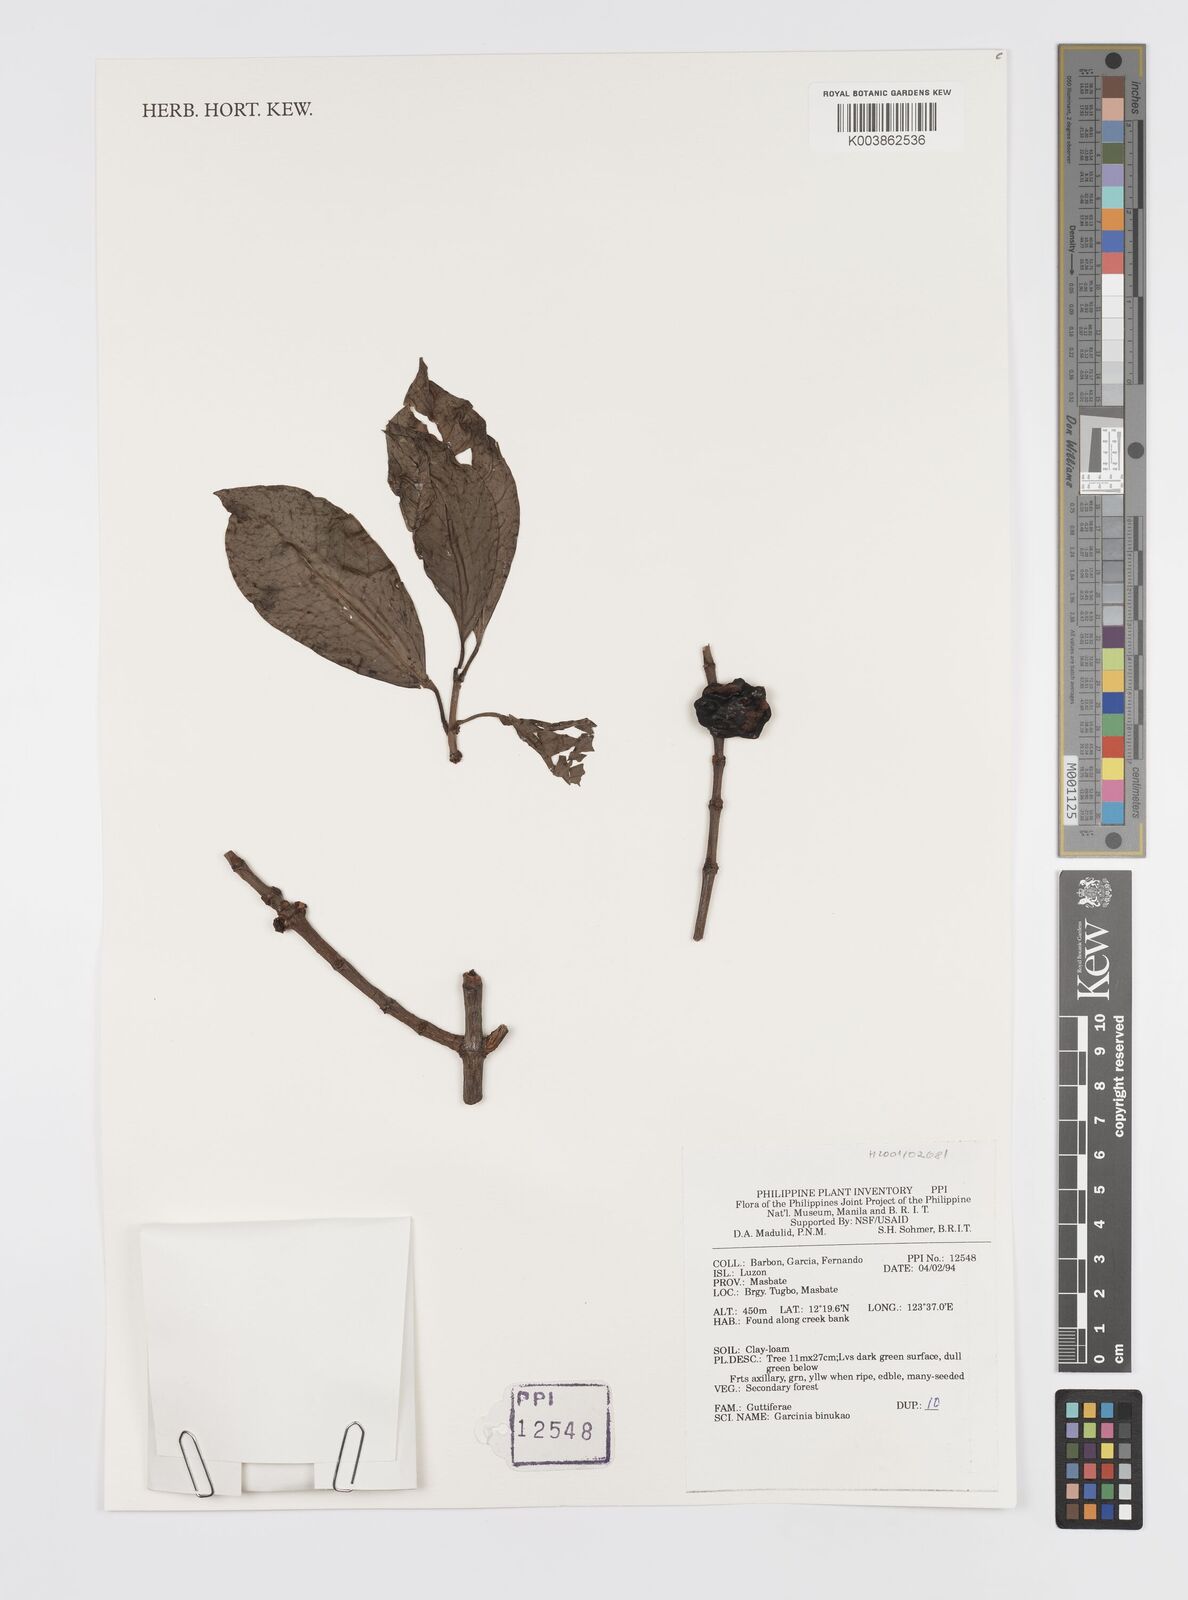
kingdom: Plantae
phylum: Tracheophyta
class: Magnoliopsida
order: Malpighiales
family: Clusiaceae
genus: Garcinia
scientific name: Garcinia binucao
